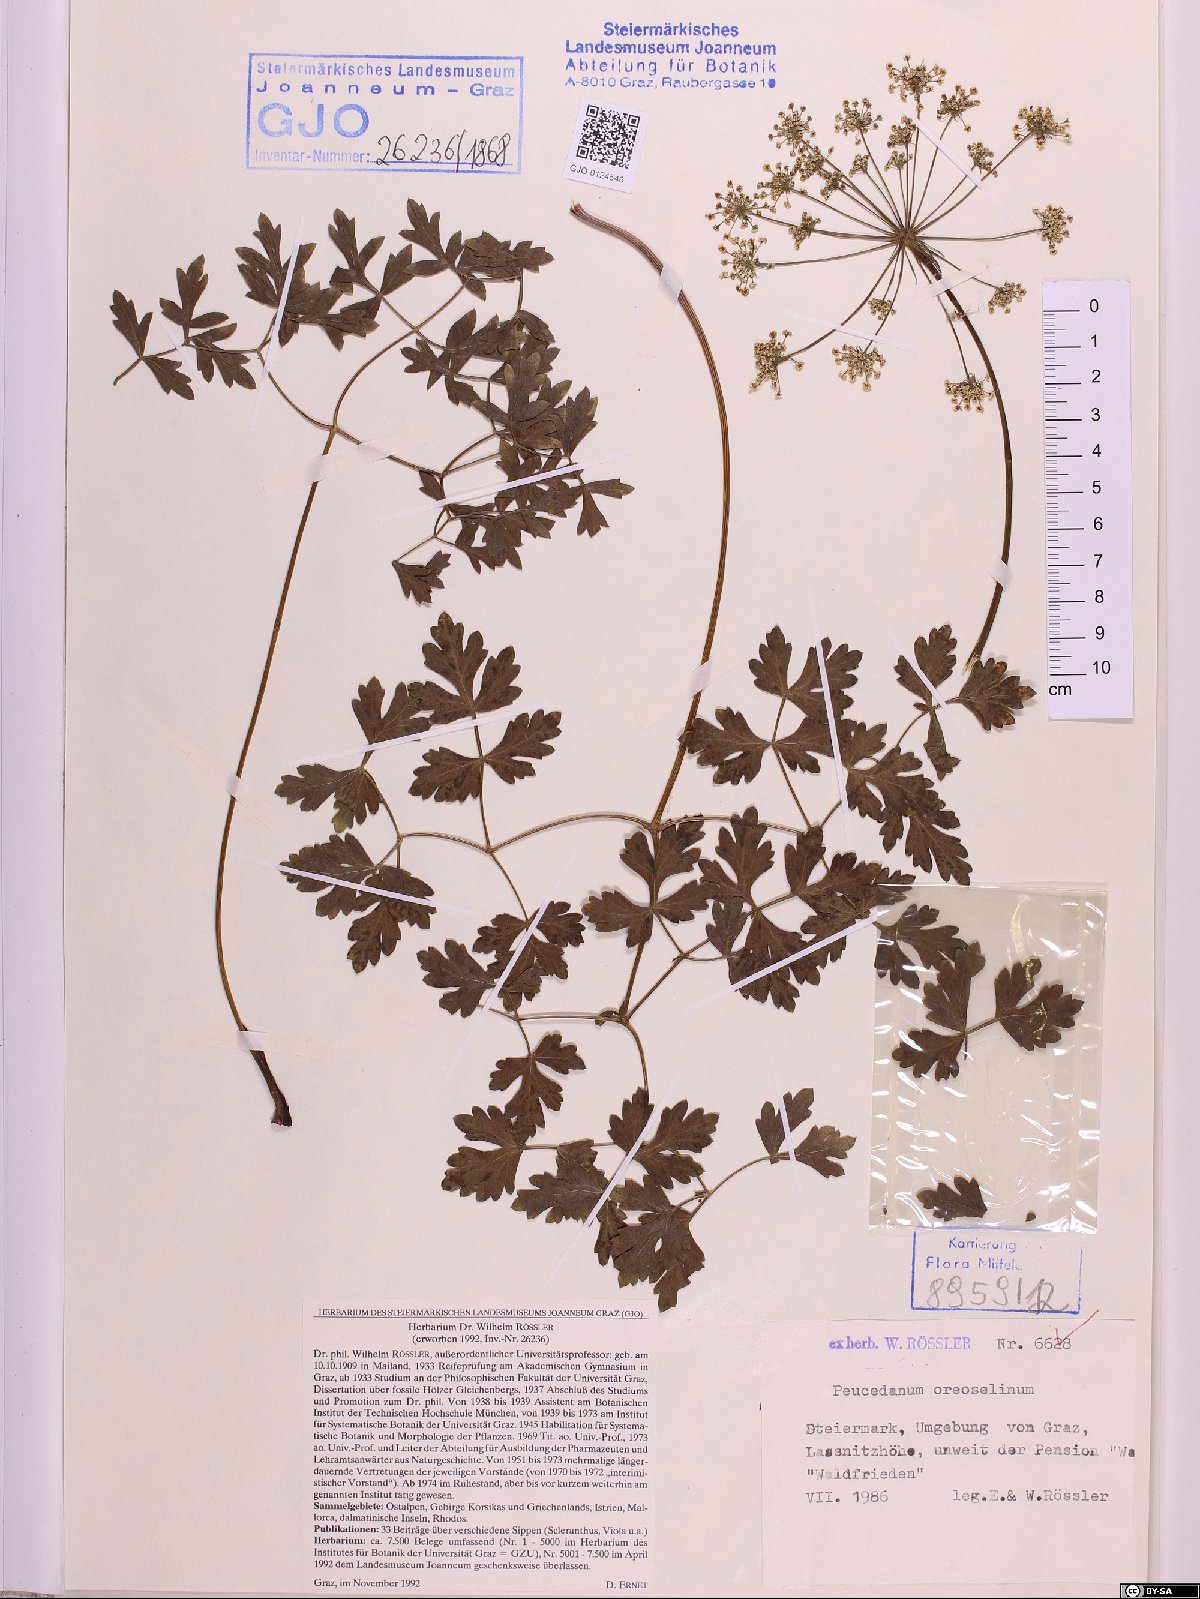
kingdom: Plantae
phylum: Tracheophyta
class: Magnoliopsida
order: Apiales
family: Apiaceae
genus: Oreoselinum
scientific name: Oreoselinum nigrum
